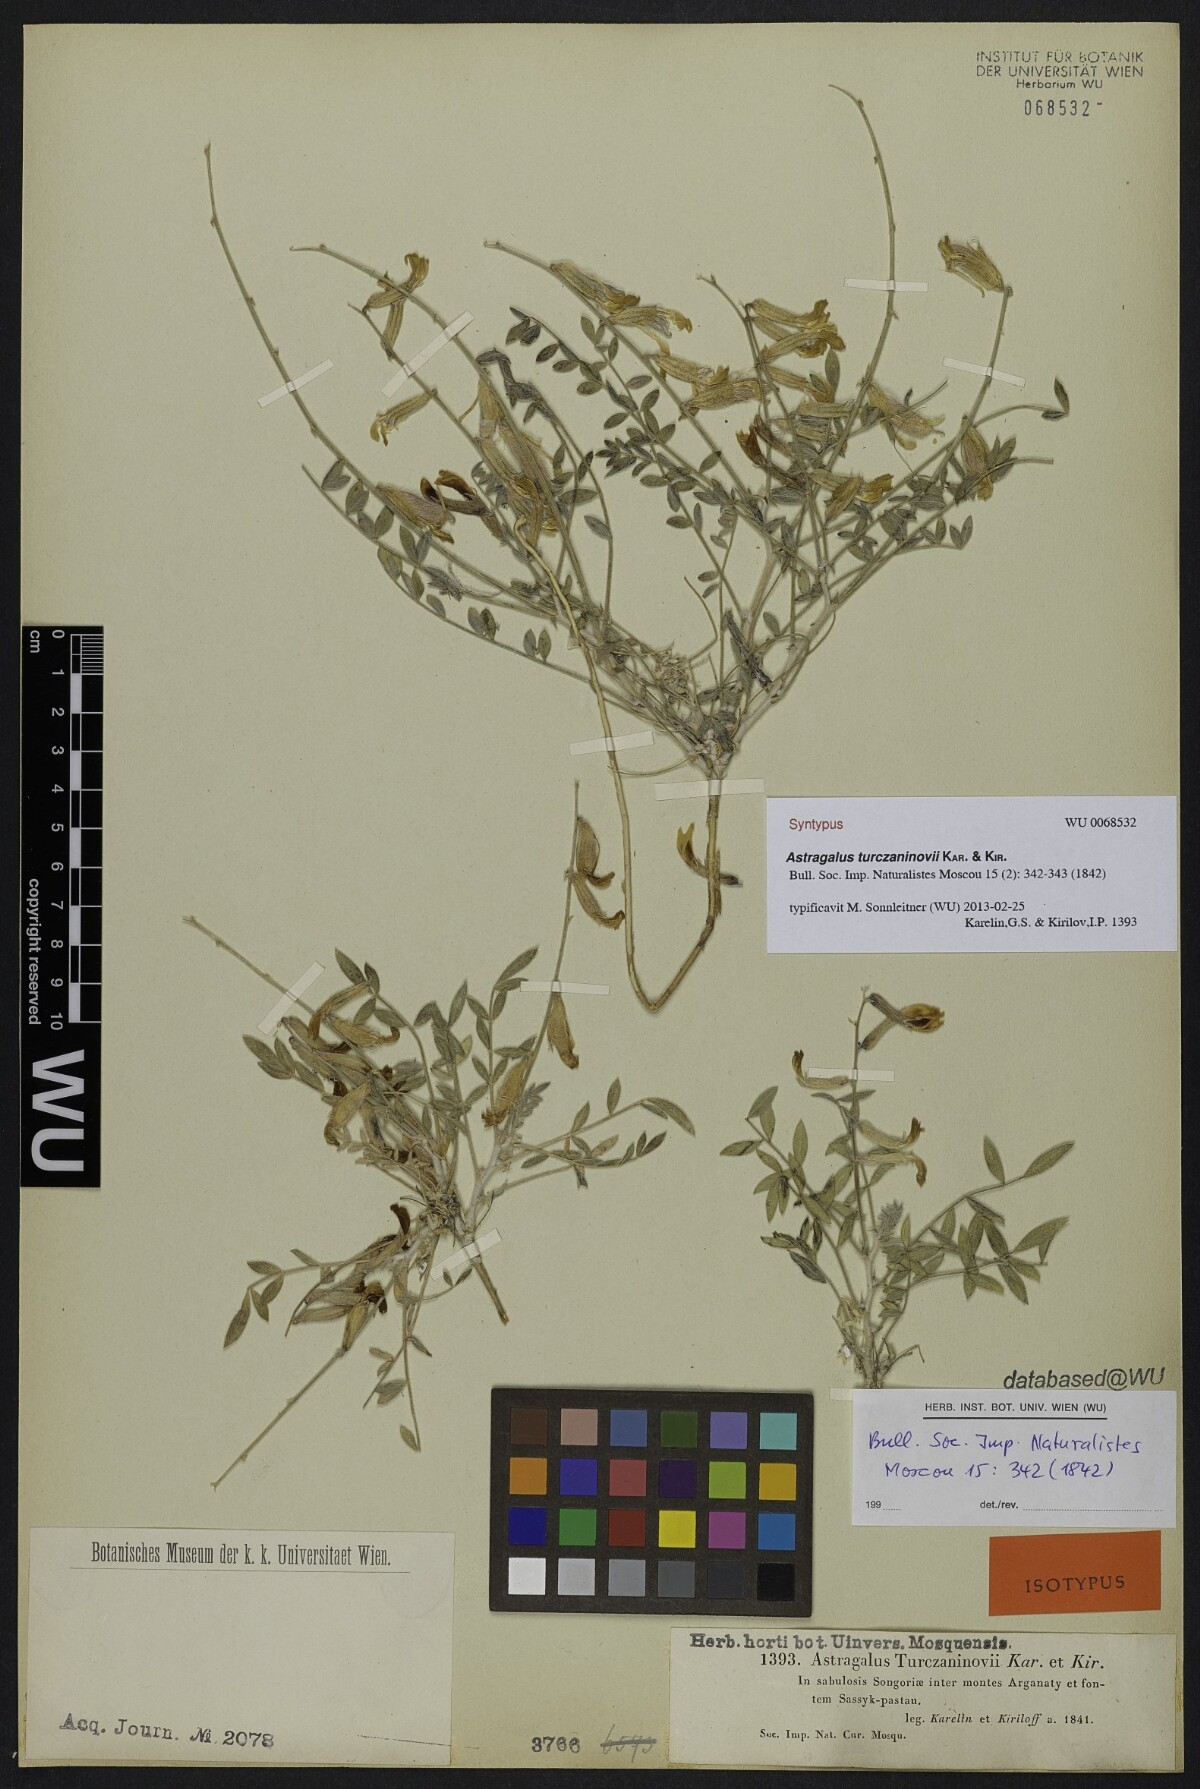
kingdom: Plantae
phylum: Tracheophyta
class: Magnoliopsida
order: Fabales
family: Fabaceae
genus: Astragalus
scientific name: Astragalus turczaninovii
